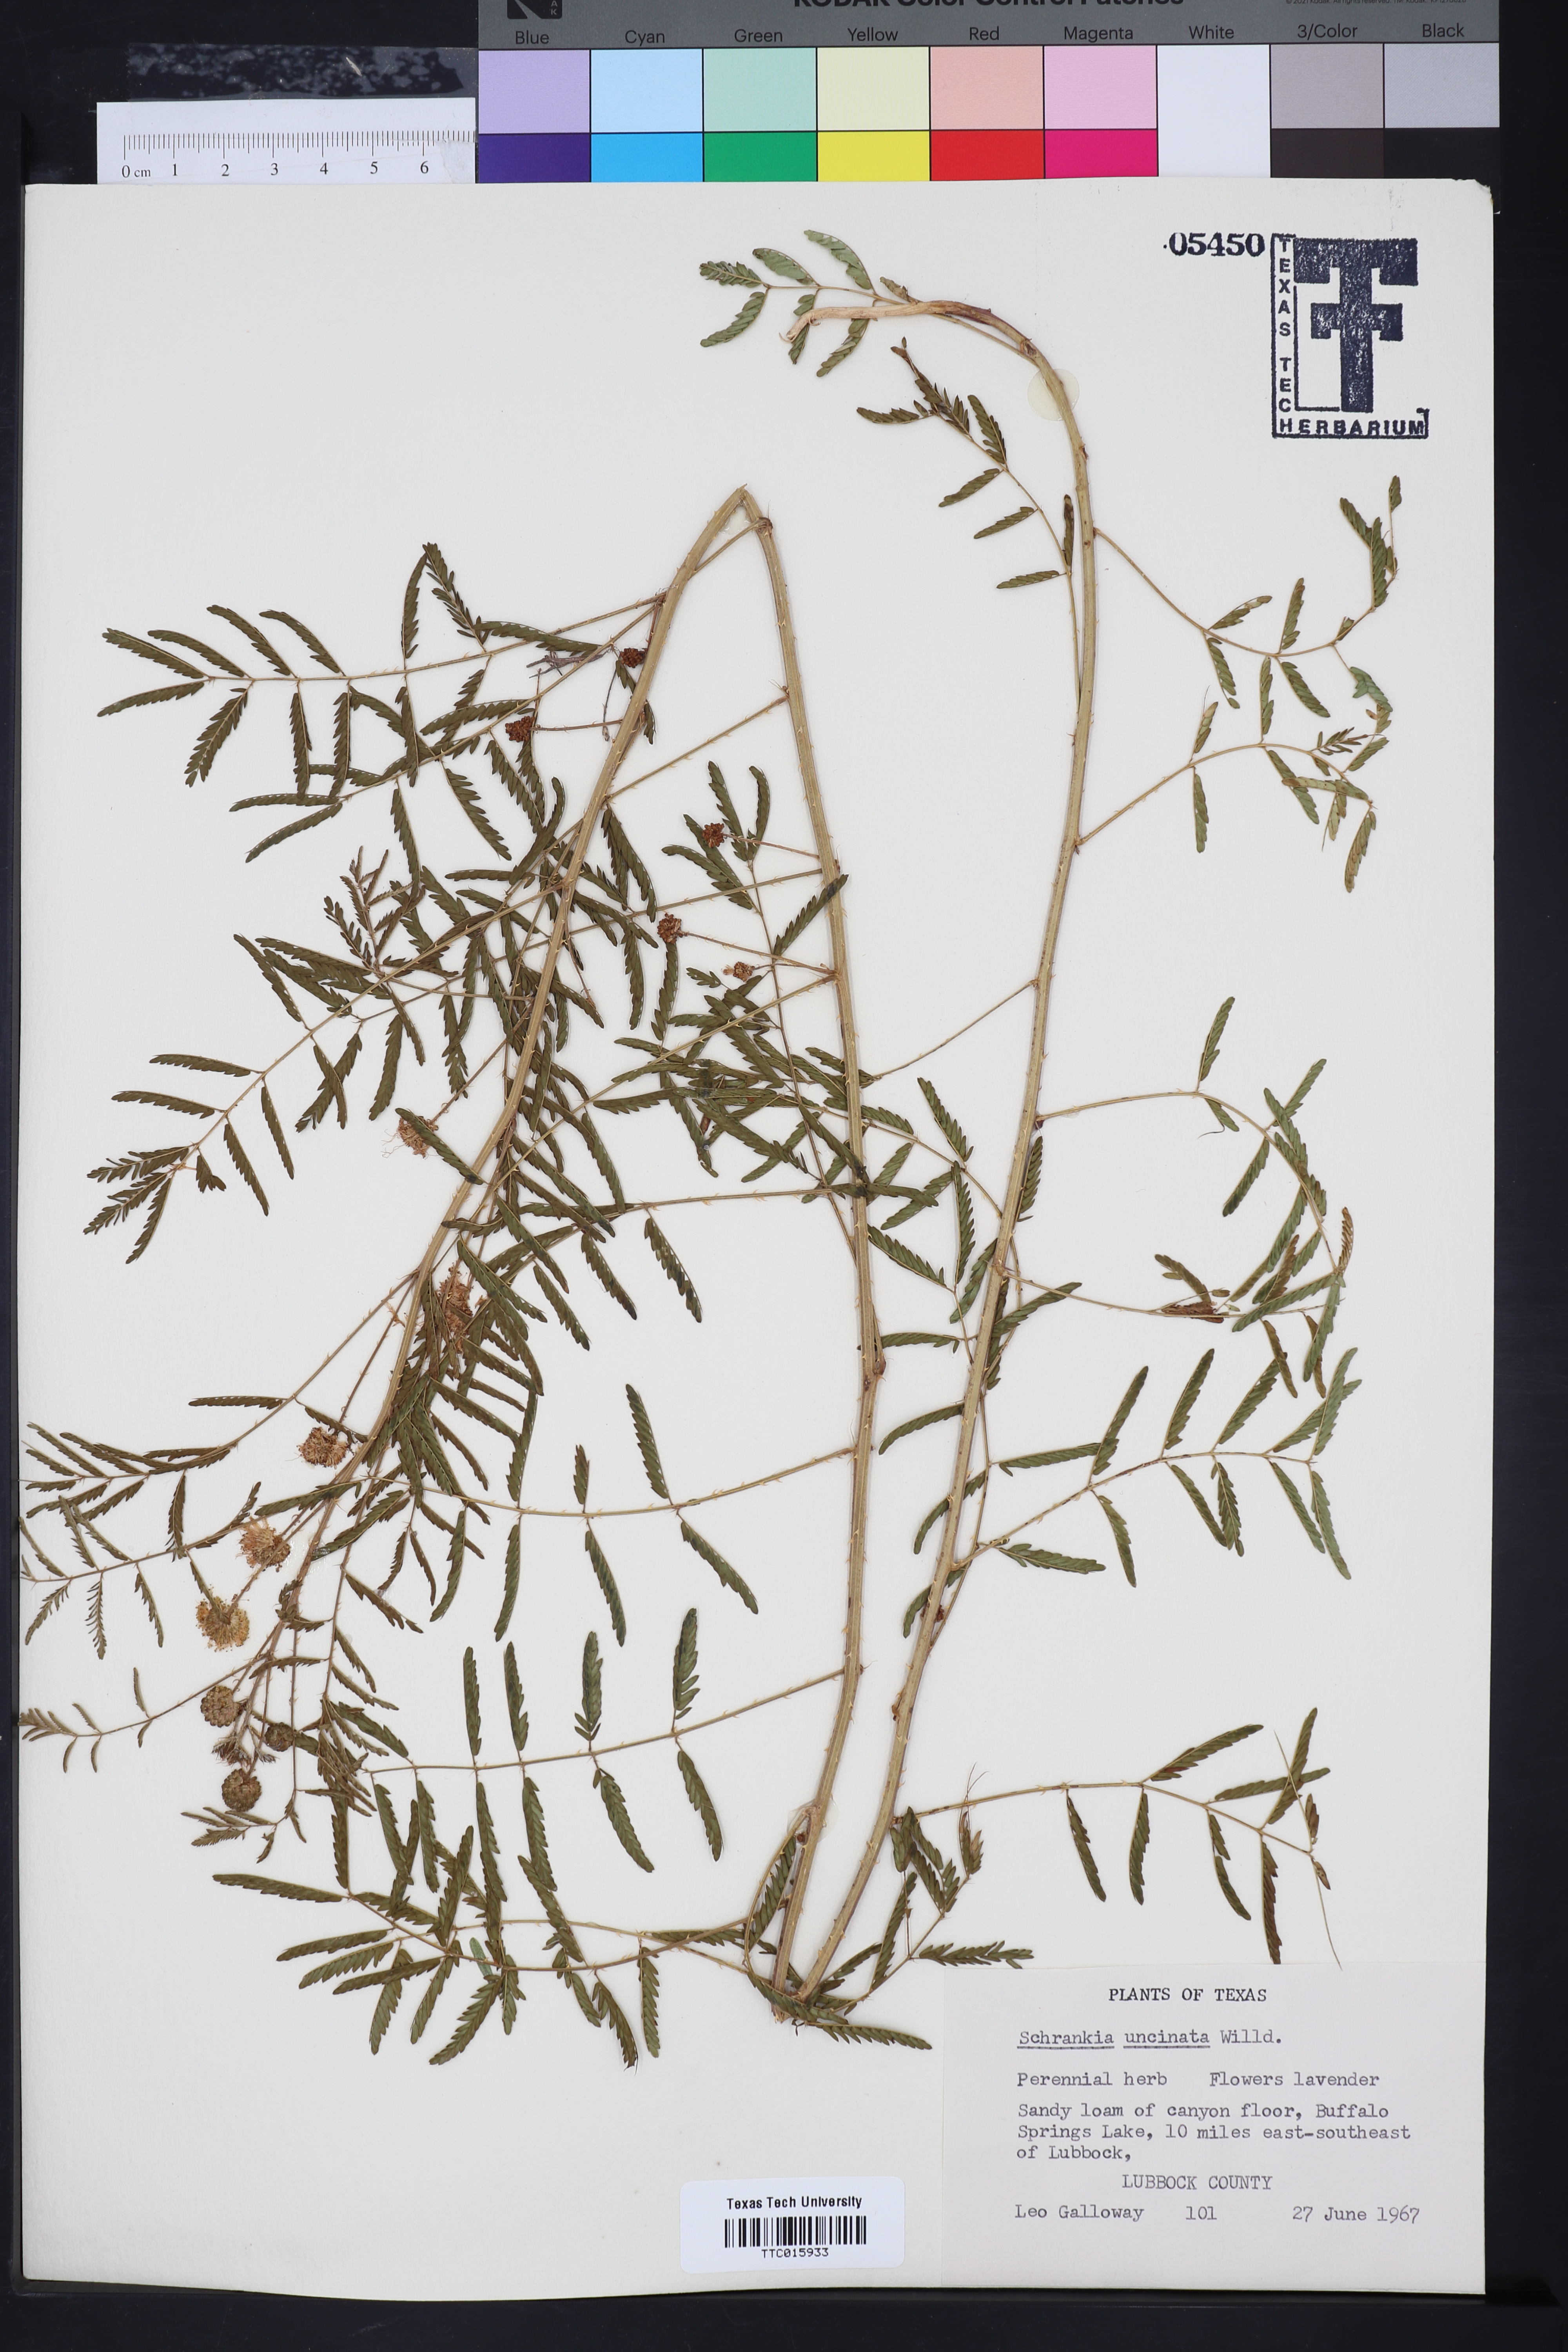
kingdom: Plantae
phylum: Tracheophyta
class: Magnoliopsida
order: Fabales
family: Fabaceae
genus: Mimosa
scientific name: Mimosa quadrivalvis
